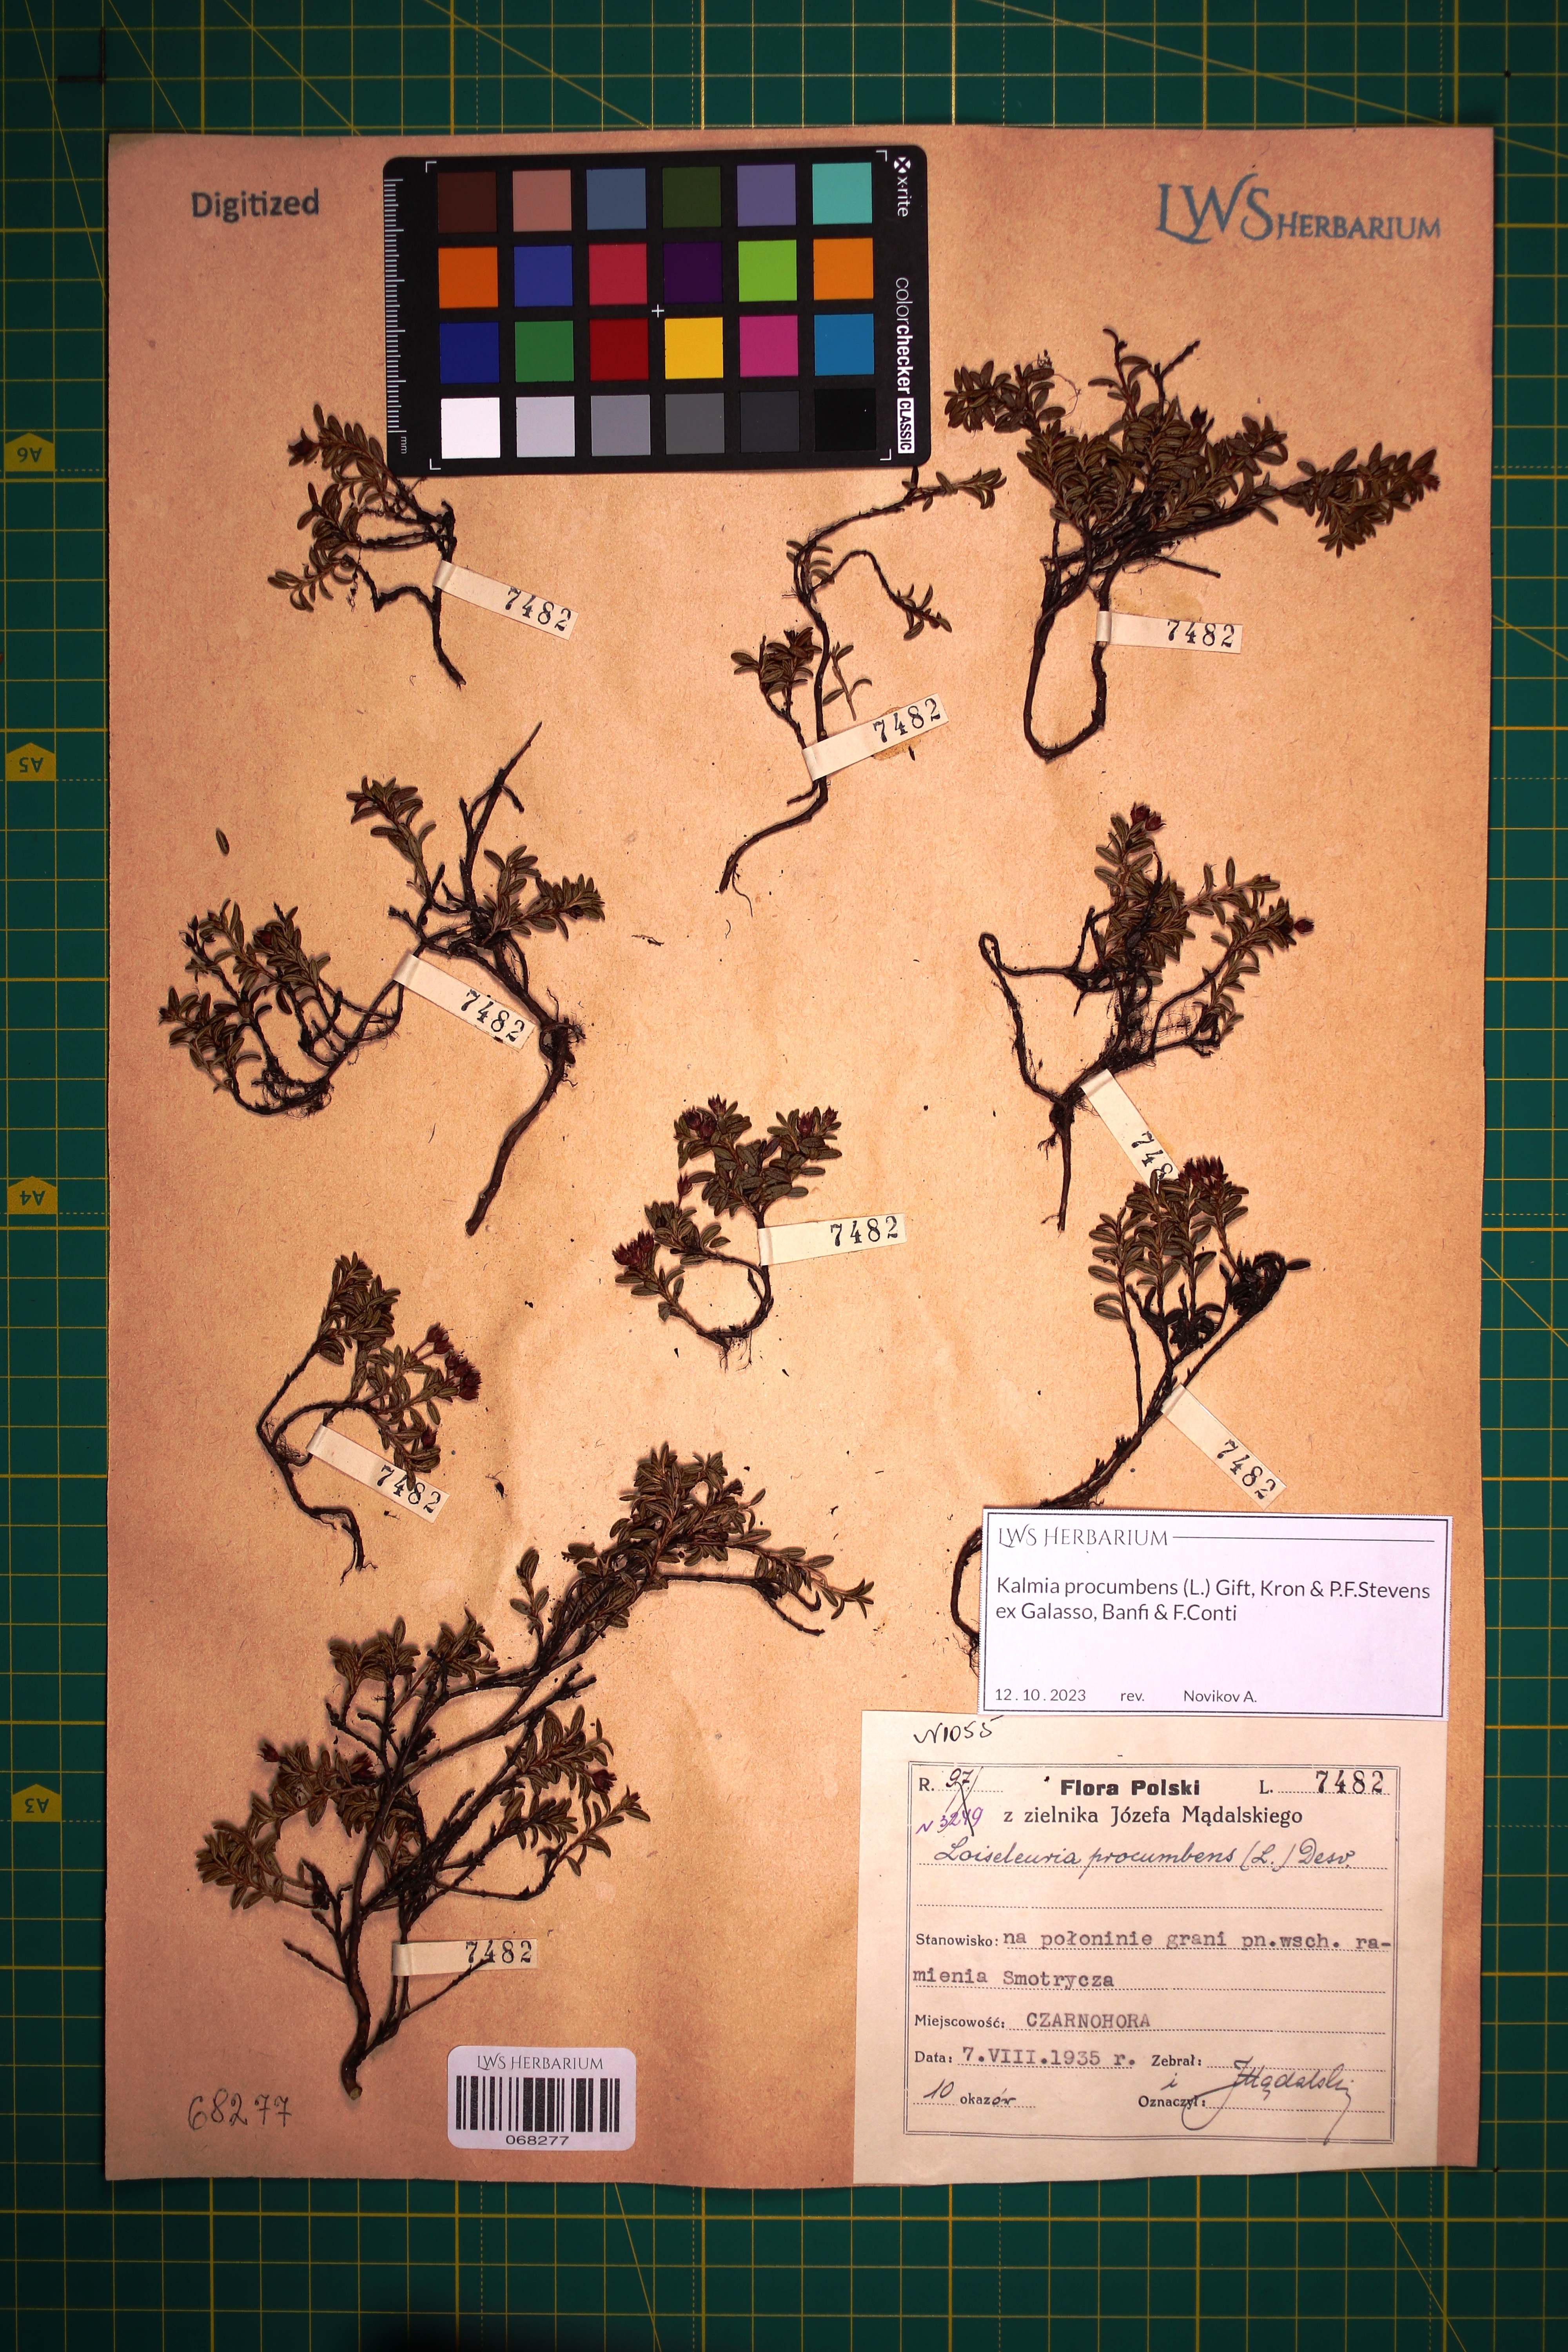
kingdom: Plantae
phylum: Tracheophyta
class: Magnoliopsida
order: Ericales
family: Ericaceae
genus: Kalmia
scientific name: Kalmia procumbens
